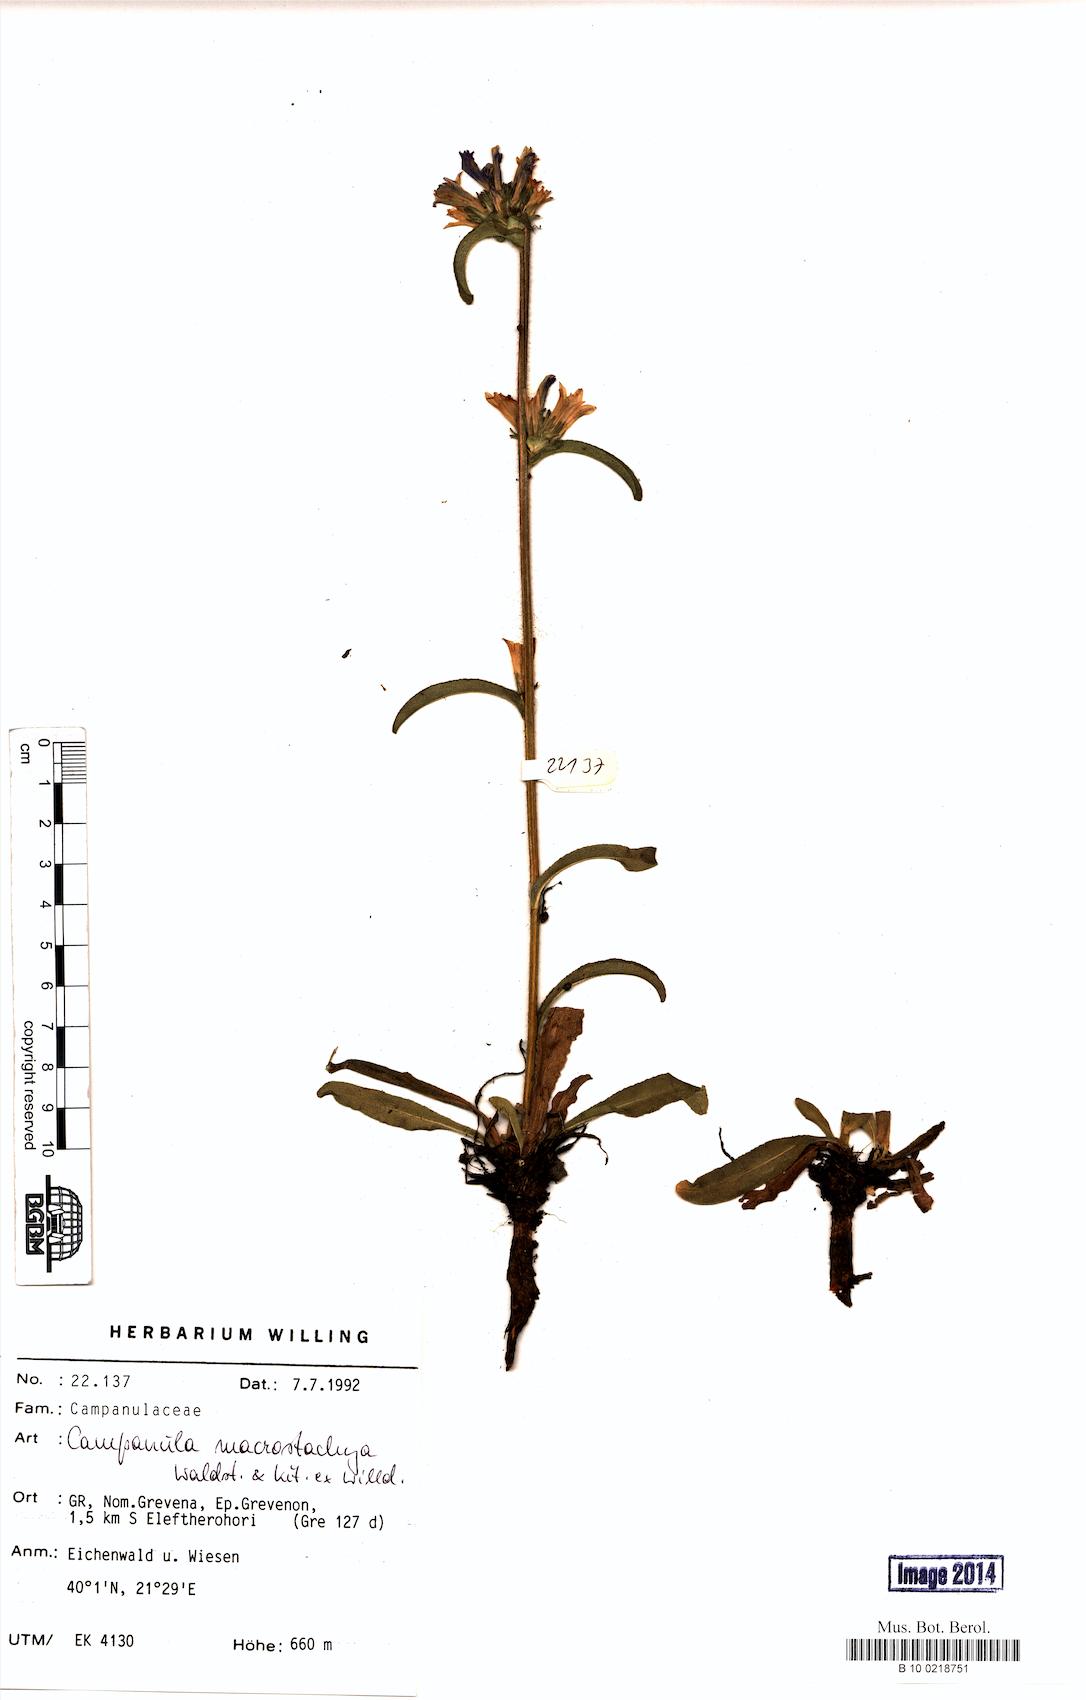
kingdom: Plantae
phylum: Tracheophyta
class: Magnoliopsida
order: Asterales
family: Campanulaceae
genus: Campanula
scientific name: Campanula macrostachya
